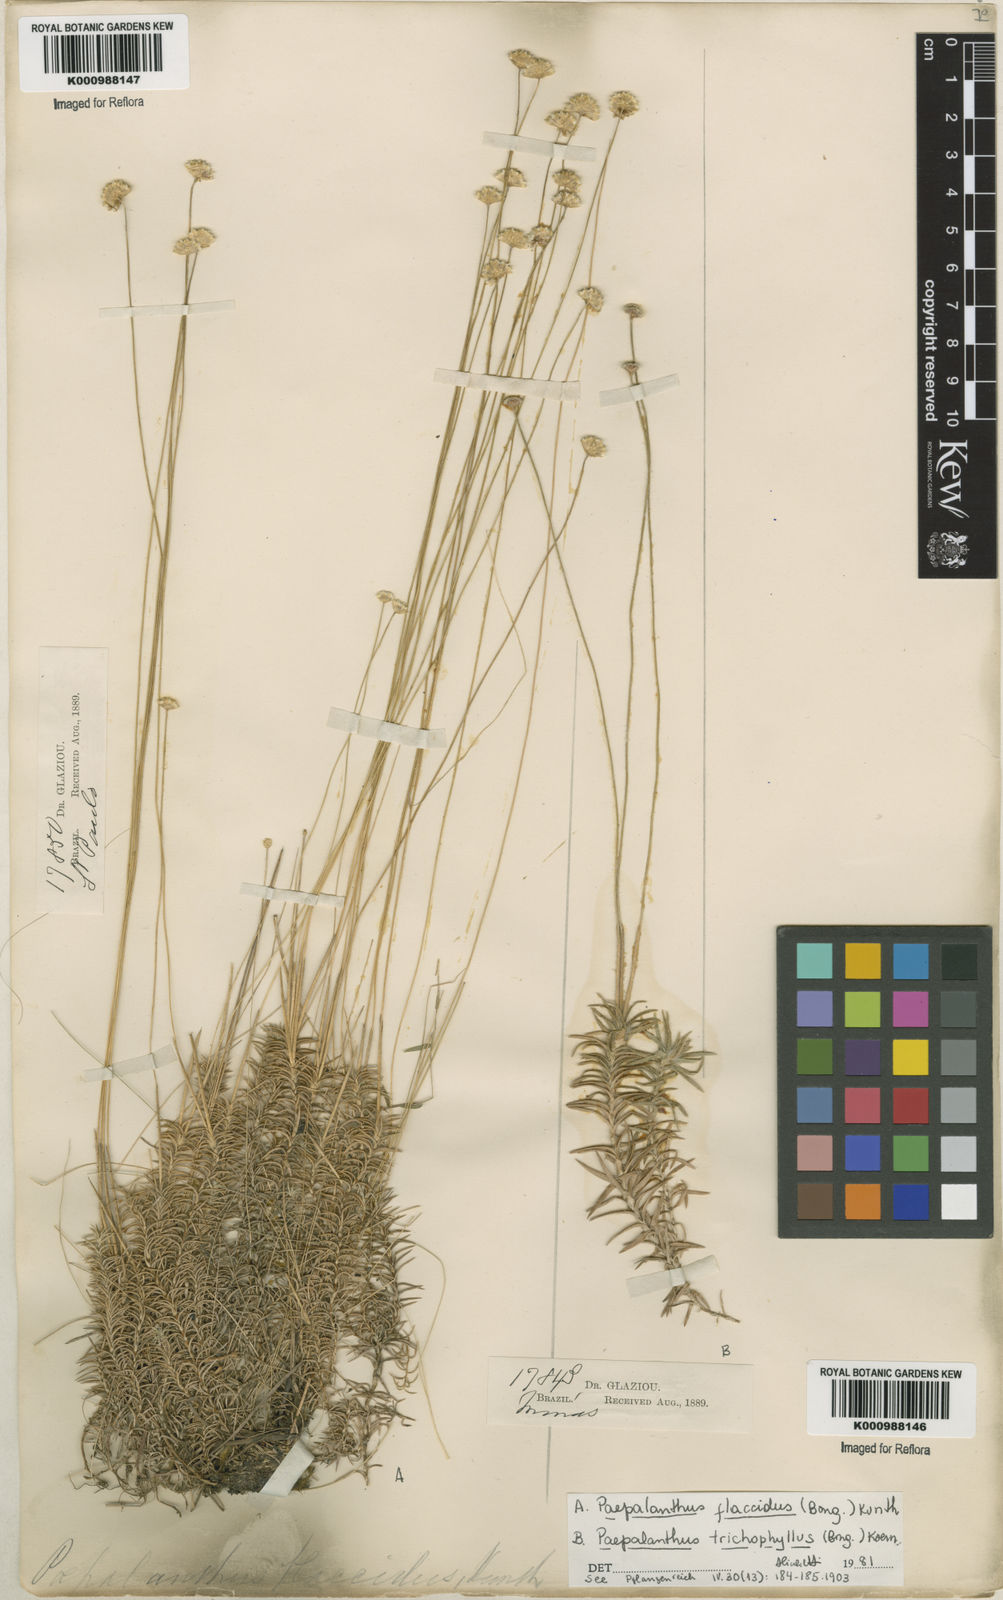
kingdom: Plantae
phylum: Tracheophyta
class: Liliopsida
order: Poales
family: Eriocaulaceae
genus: Paepalanthus
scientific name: Paepalanthus flaccidus
